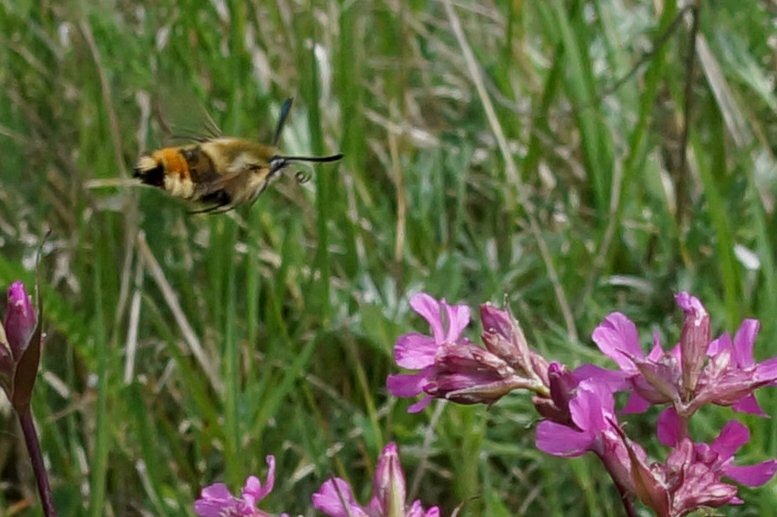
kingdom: Animalia
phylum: Arthropoda
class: Insecta
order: Lepidoptera
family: Sphingidae
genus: Hemaris
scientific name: Hemaris tityus
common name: Smalrandet humlebisværmer
